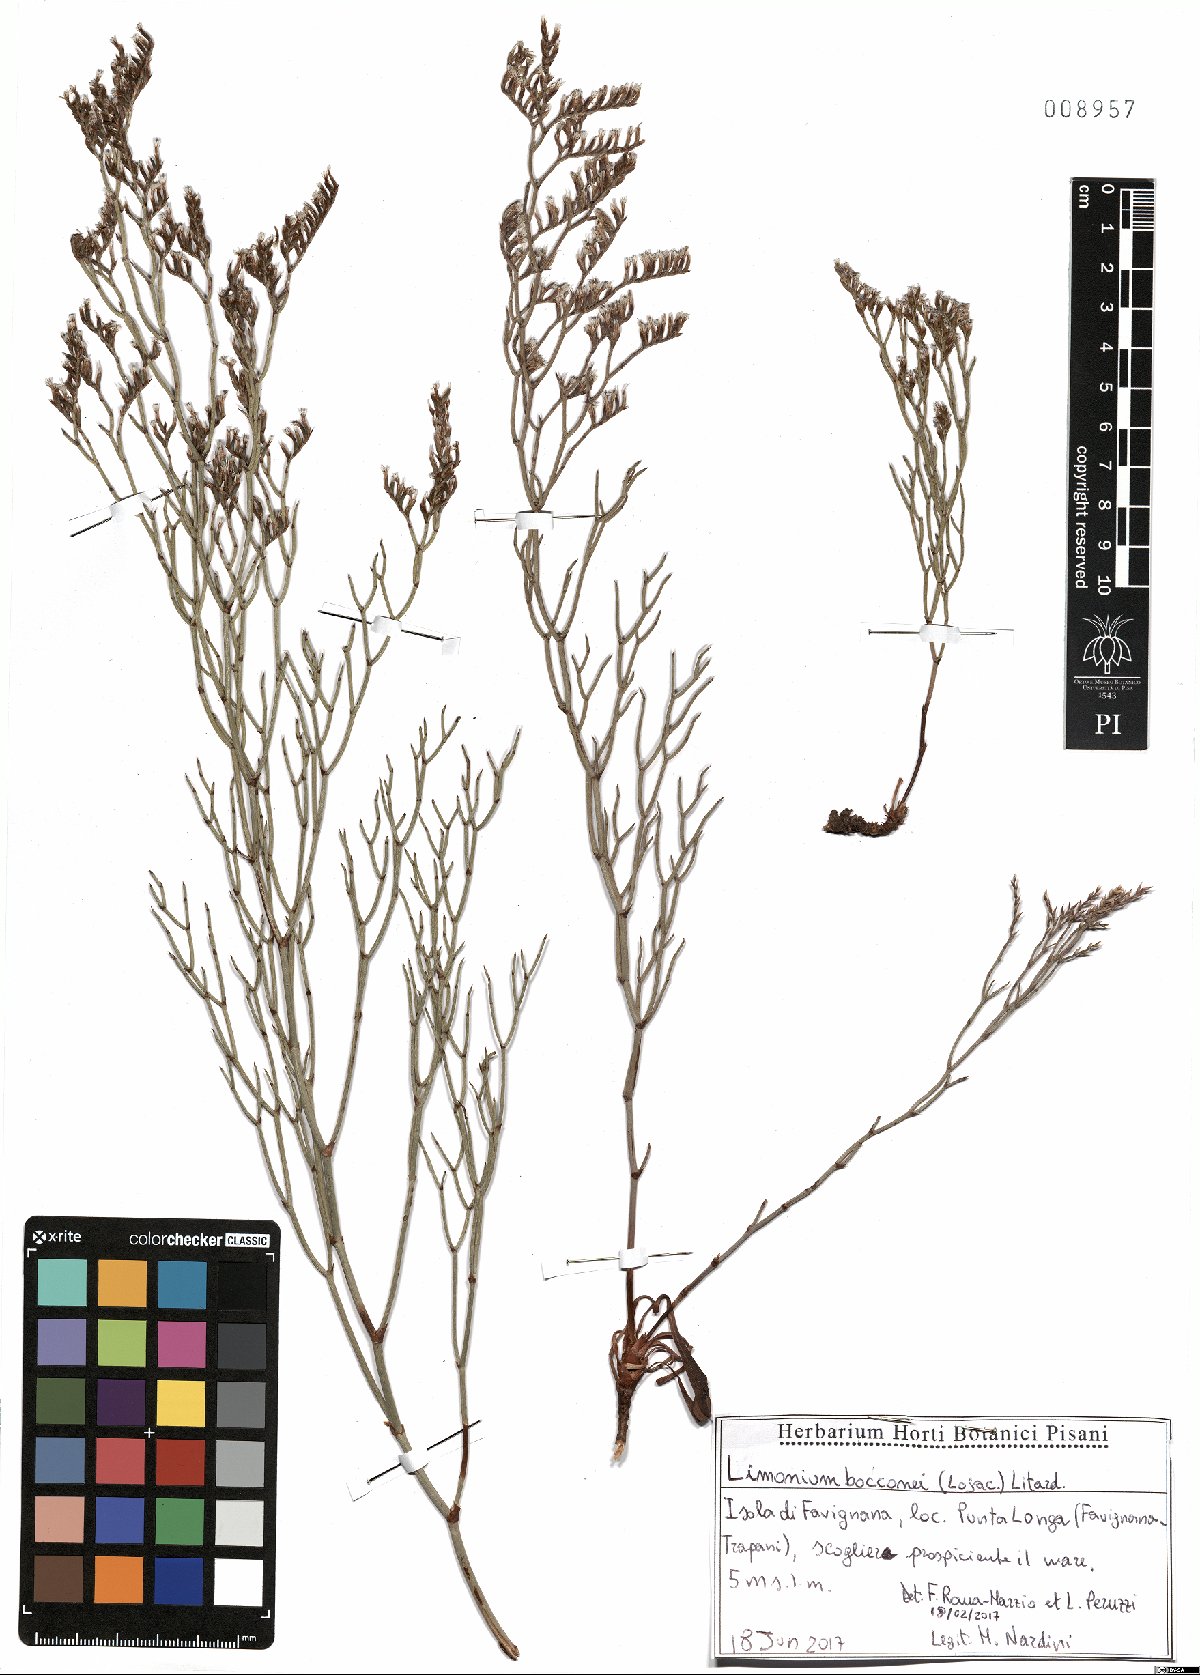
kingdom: Plantae
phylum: Tracheophyta
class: Magnoliopsida
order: Caryophyllales
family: Plumbaginaceae
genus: Limonium
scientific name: Limonium bocconei
